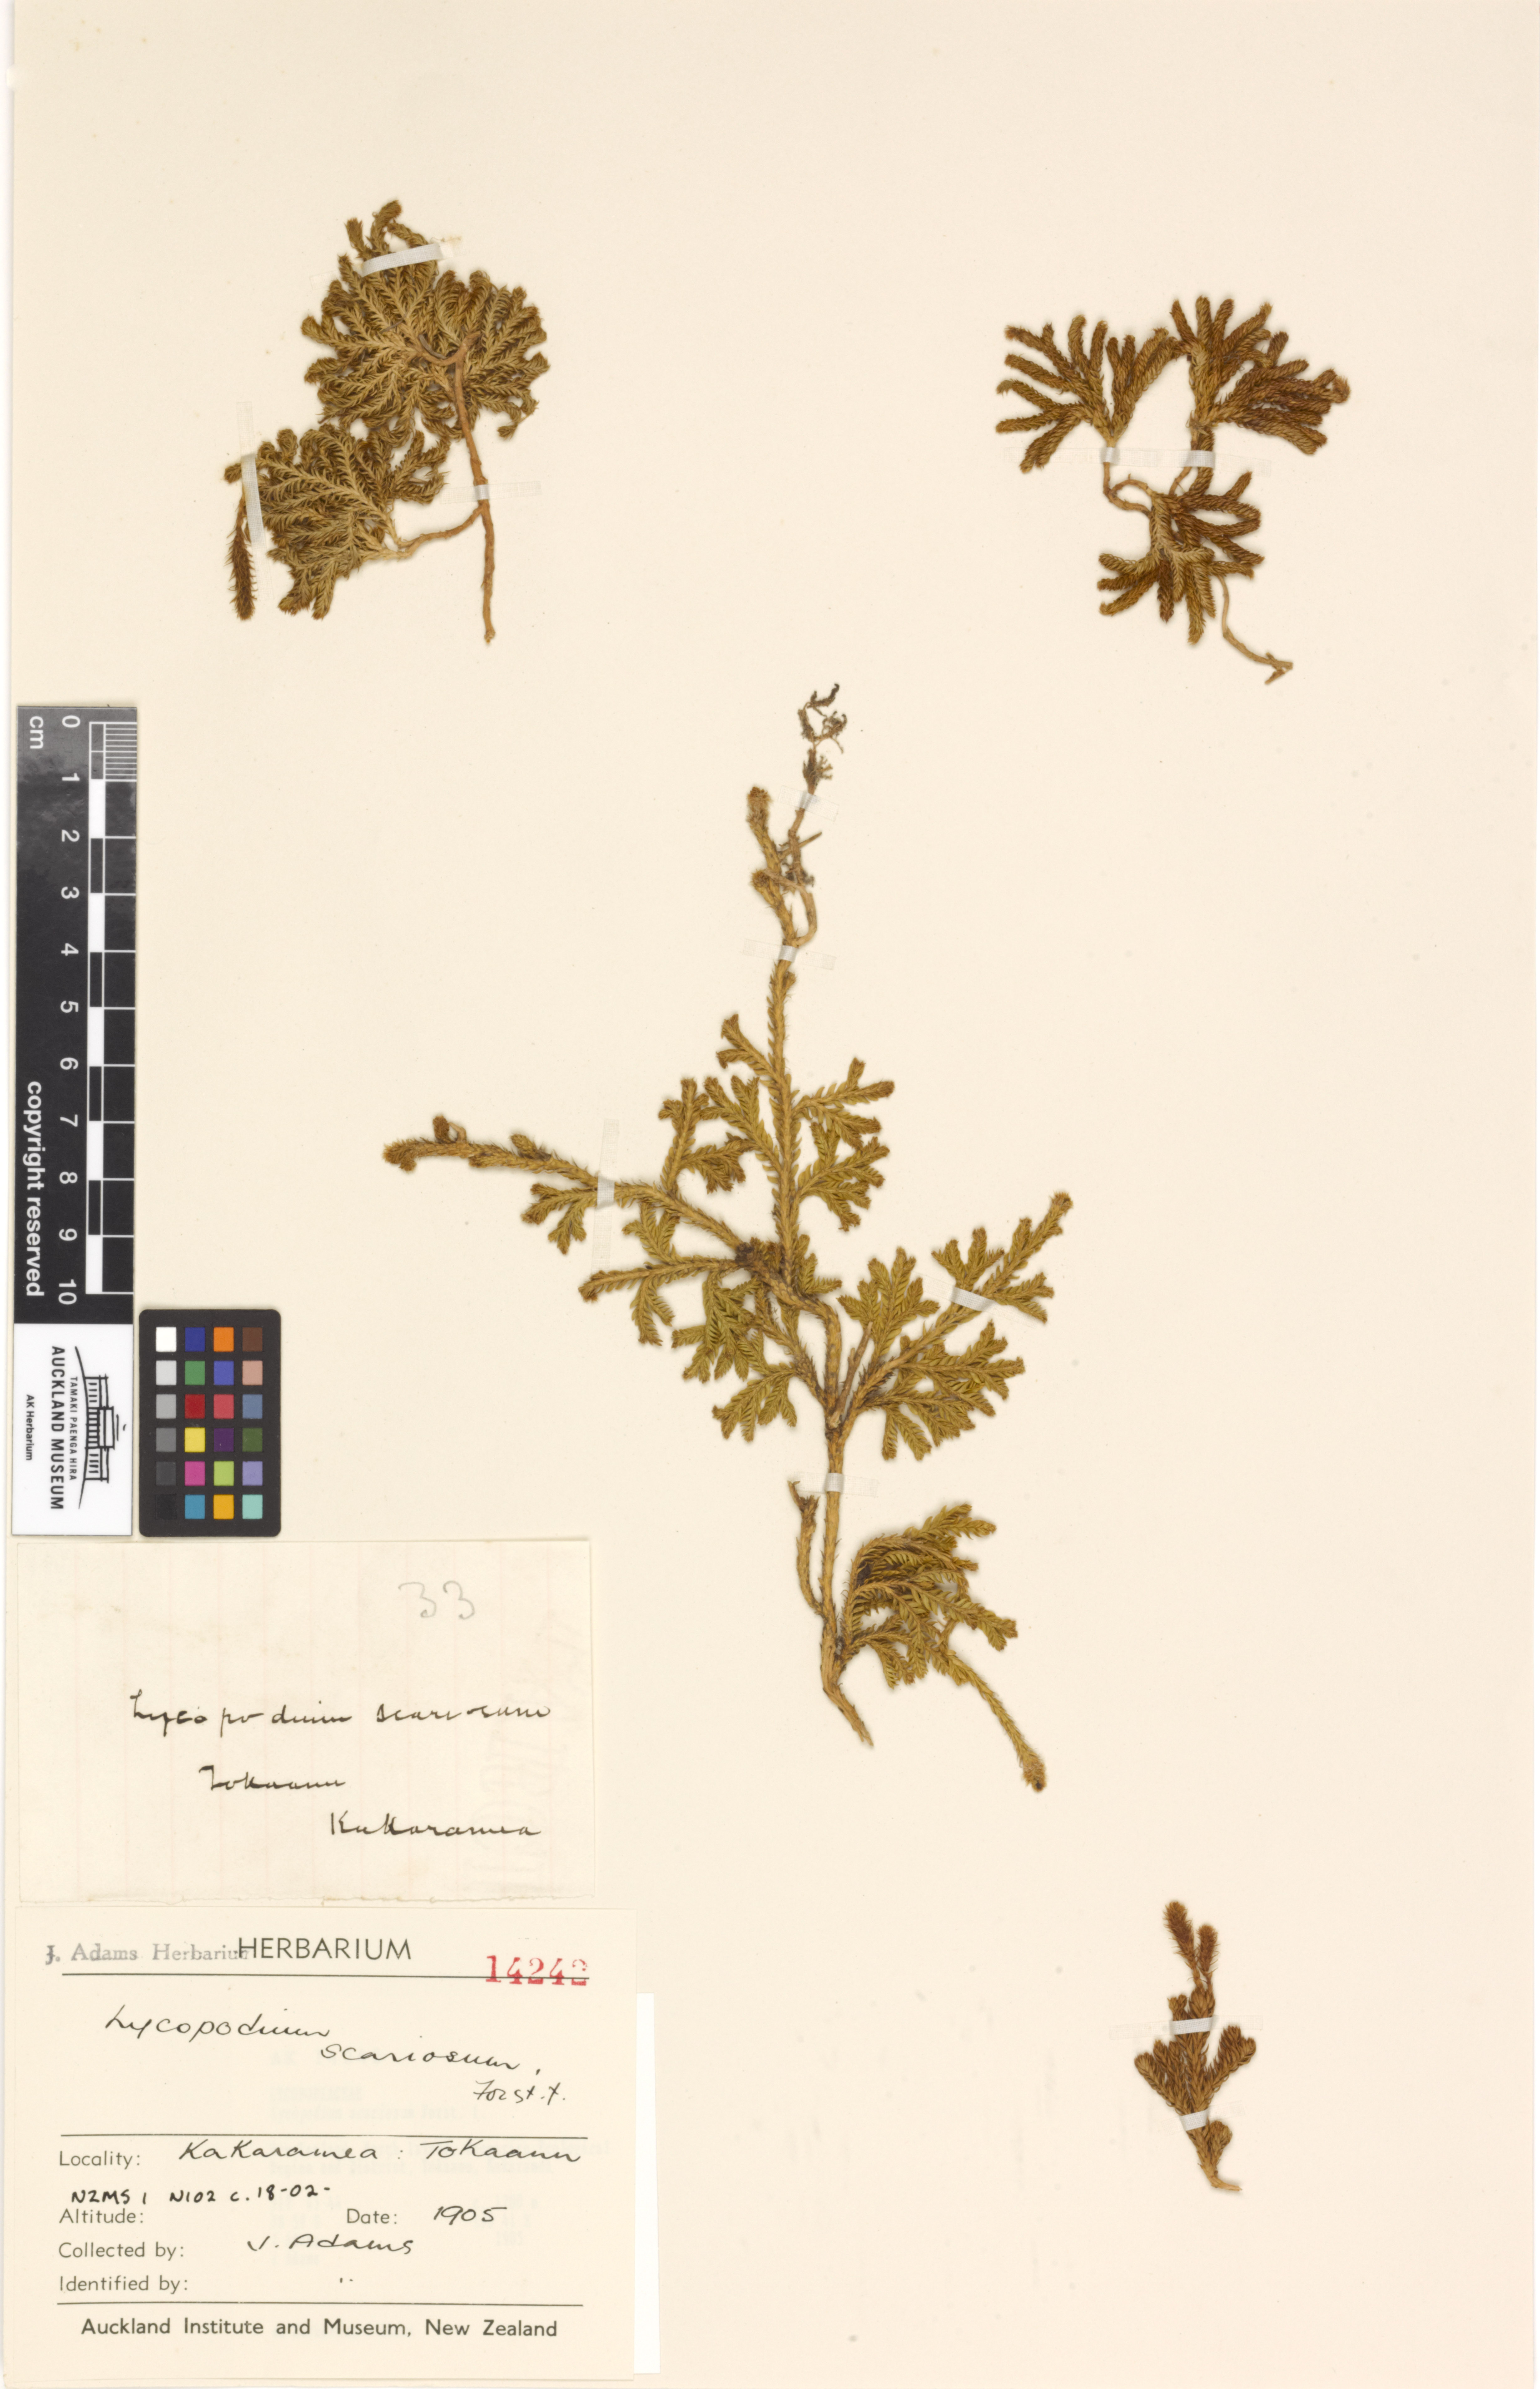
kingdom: Plantae
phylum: Tracheophyta
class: Lycopodiopsida
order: Lycopodiales
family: Lycopodiaceae
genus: Diphasium
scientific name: Diphasium scariosum
